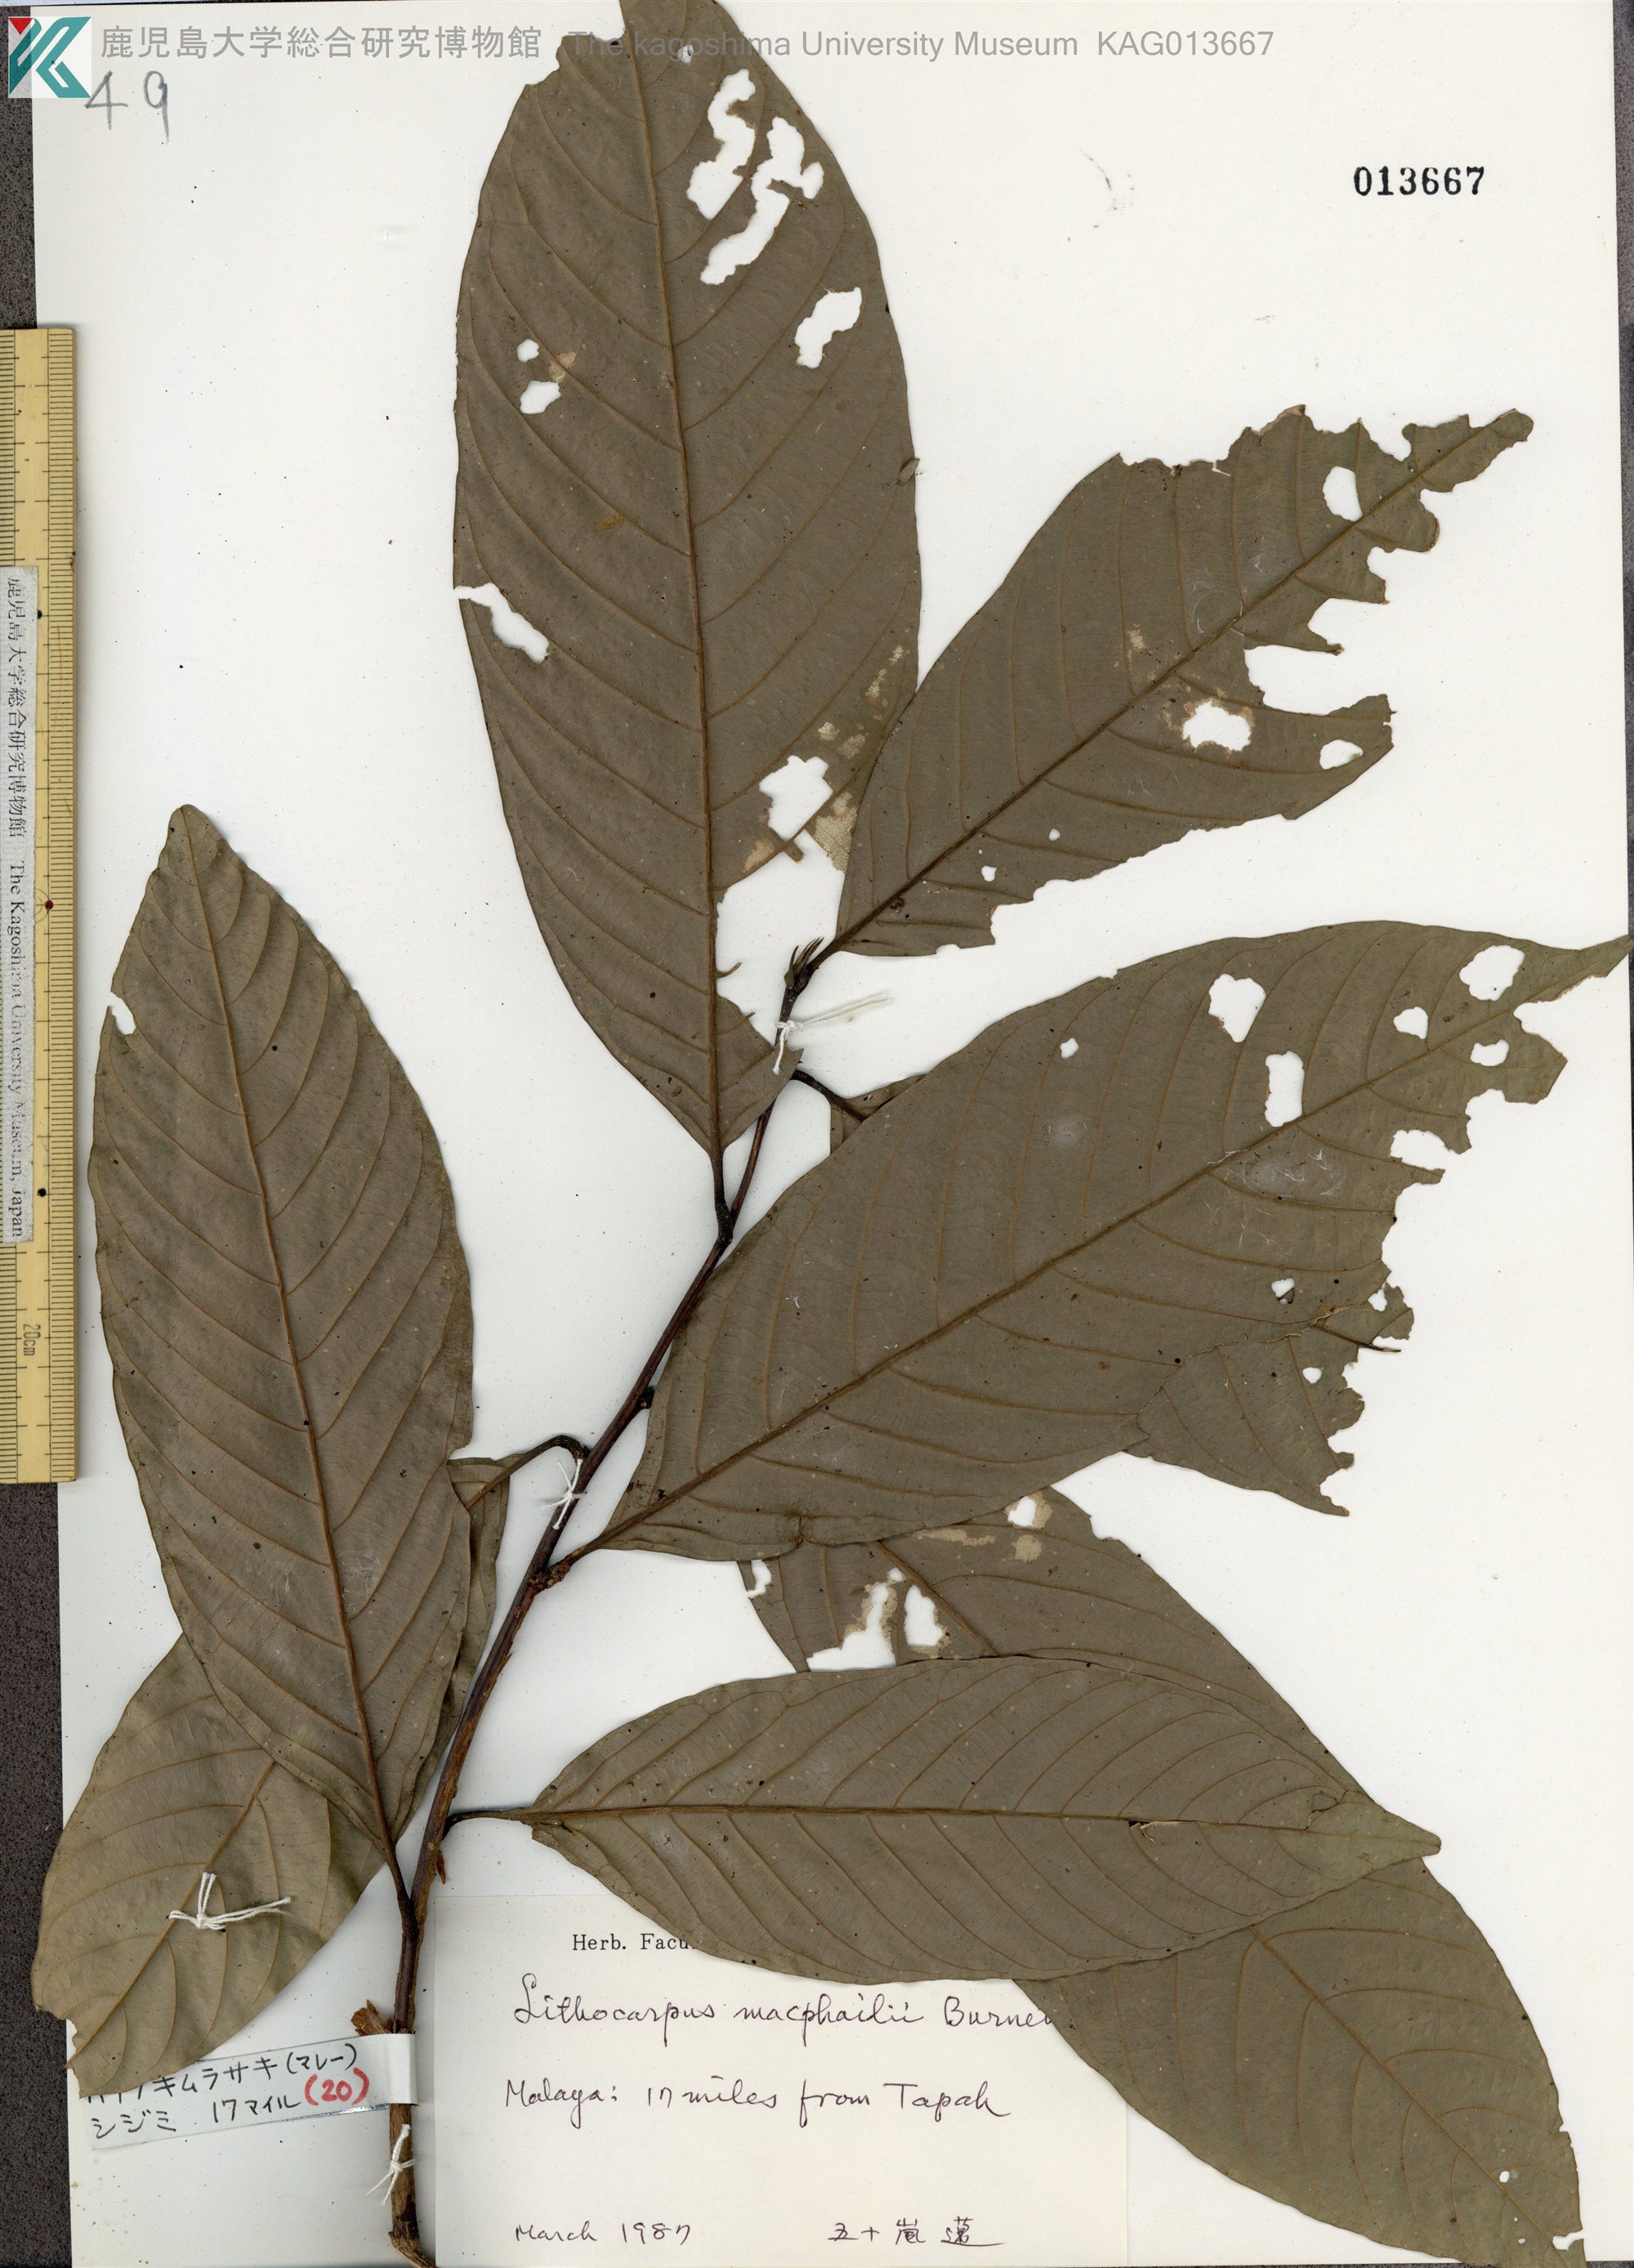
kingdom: Plantae
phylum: Tracheophyta
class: Magnoliopsida
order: Fagales
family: Fagaceae
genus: Lithocarpus
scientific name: Lithocarpus macphailii
